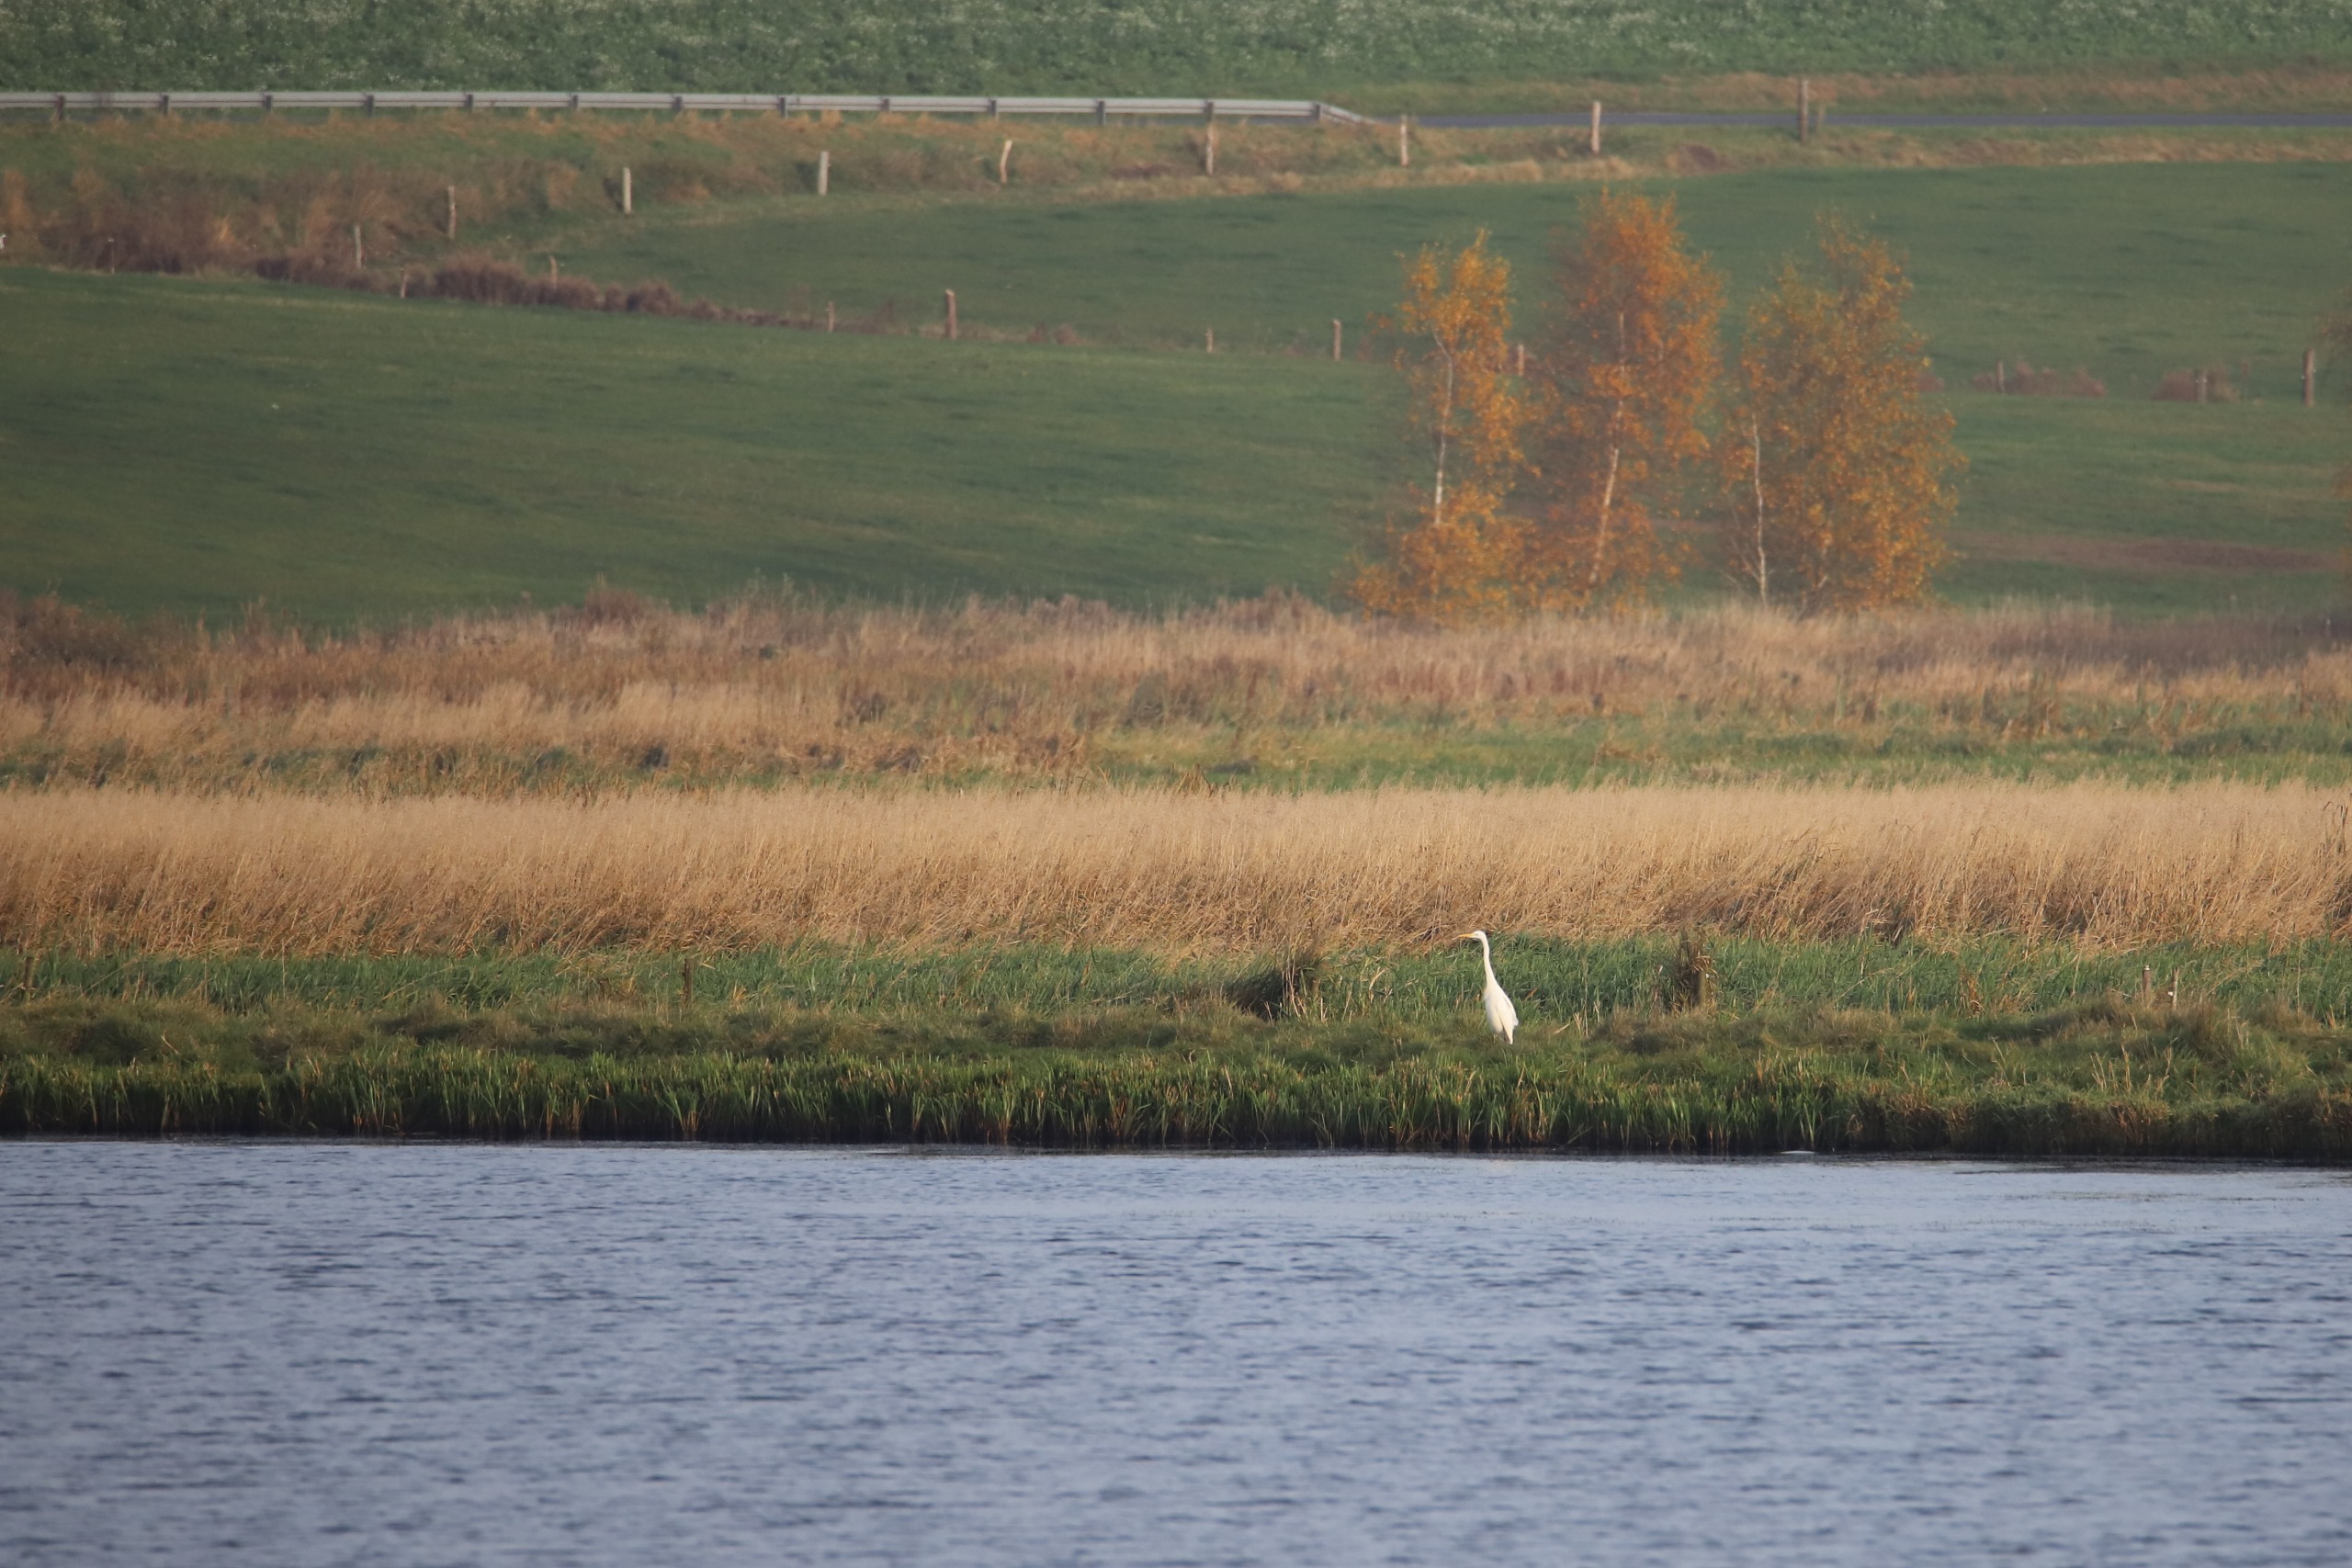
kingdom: Animalia
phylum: Chordata
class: Aves
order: Pelecaniformes
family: Ardeidae
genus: Ardea
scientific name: Ardea alba
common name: Sølvhejre
